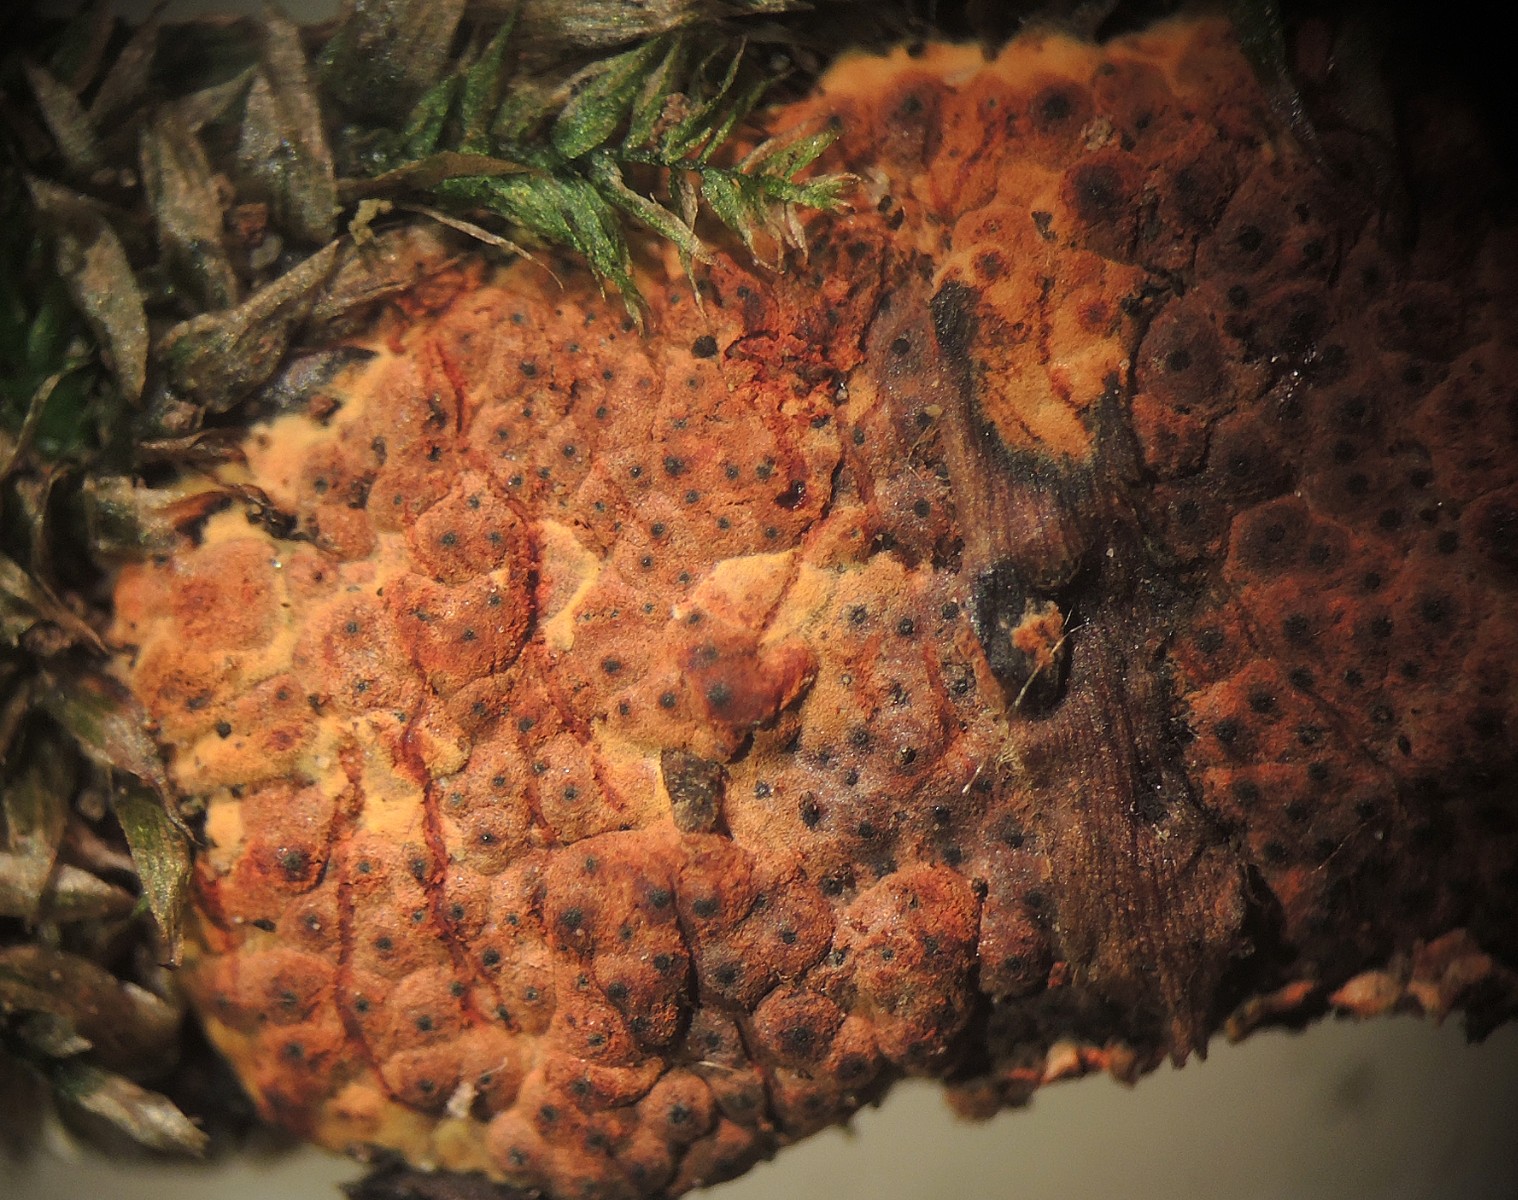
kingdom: Fungi
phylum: Ascomycota
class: Sordariomycetes
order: Xylariales
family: Hypoxylaceae
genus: Hypoxylon
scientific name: Hypoxylon crocopeplum
